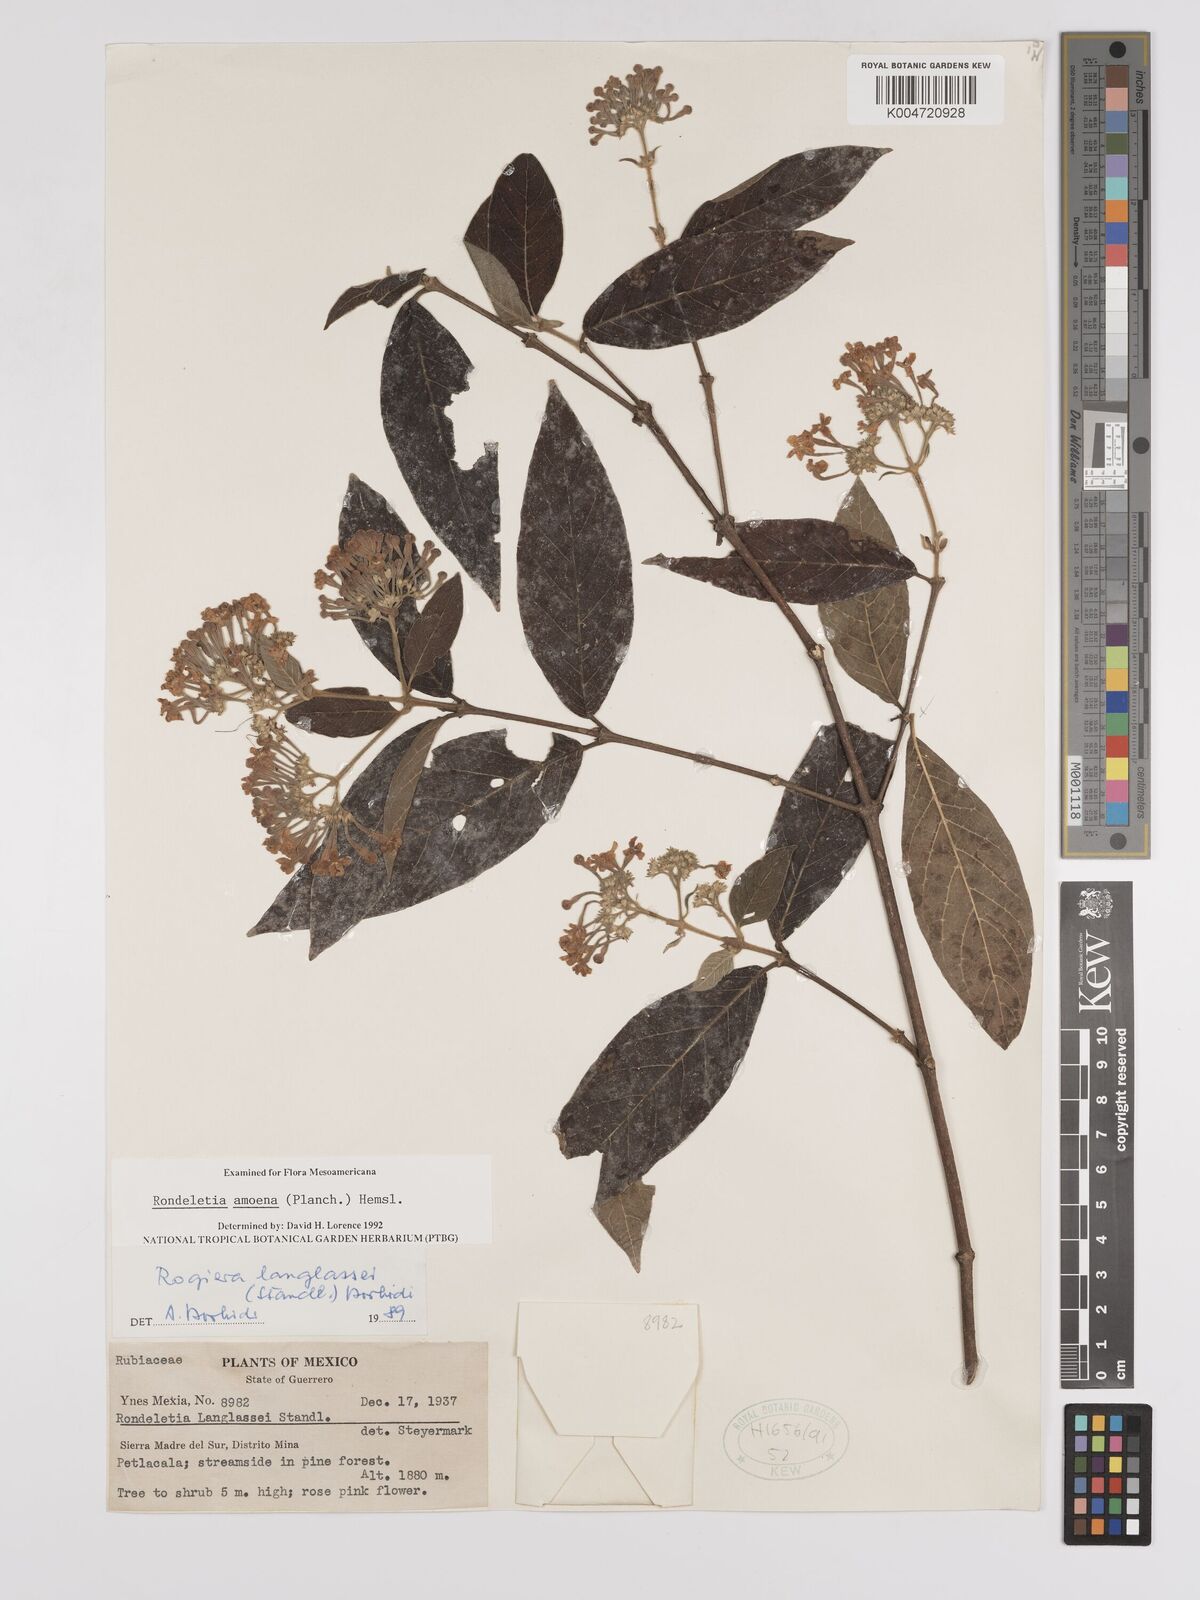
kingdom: Plantae
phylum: Tracheophyta
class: Magnoliopsida
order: Gentianales
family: Rubiaceae
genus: Rogiera
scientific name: Rogiera amoena
